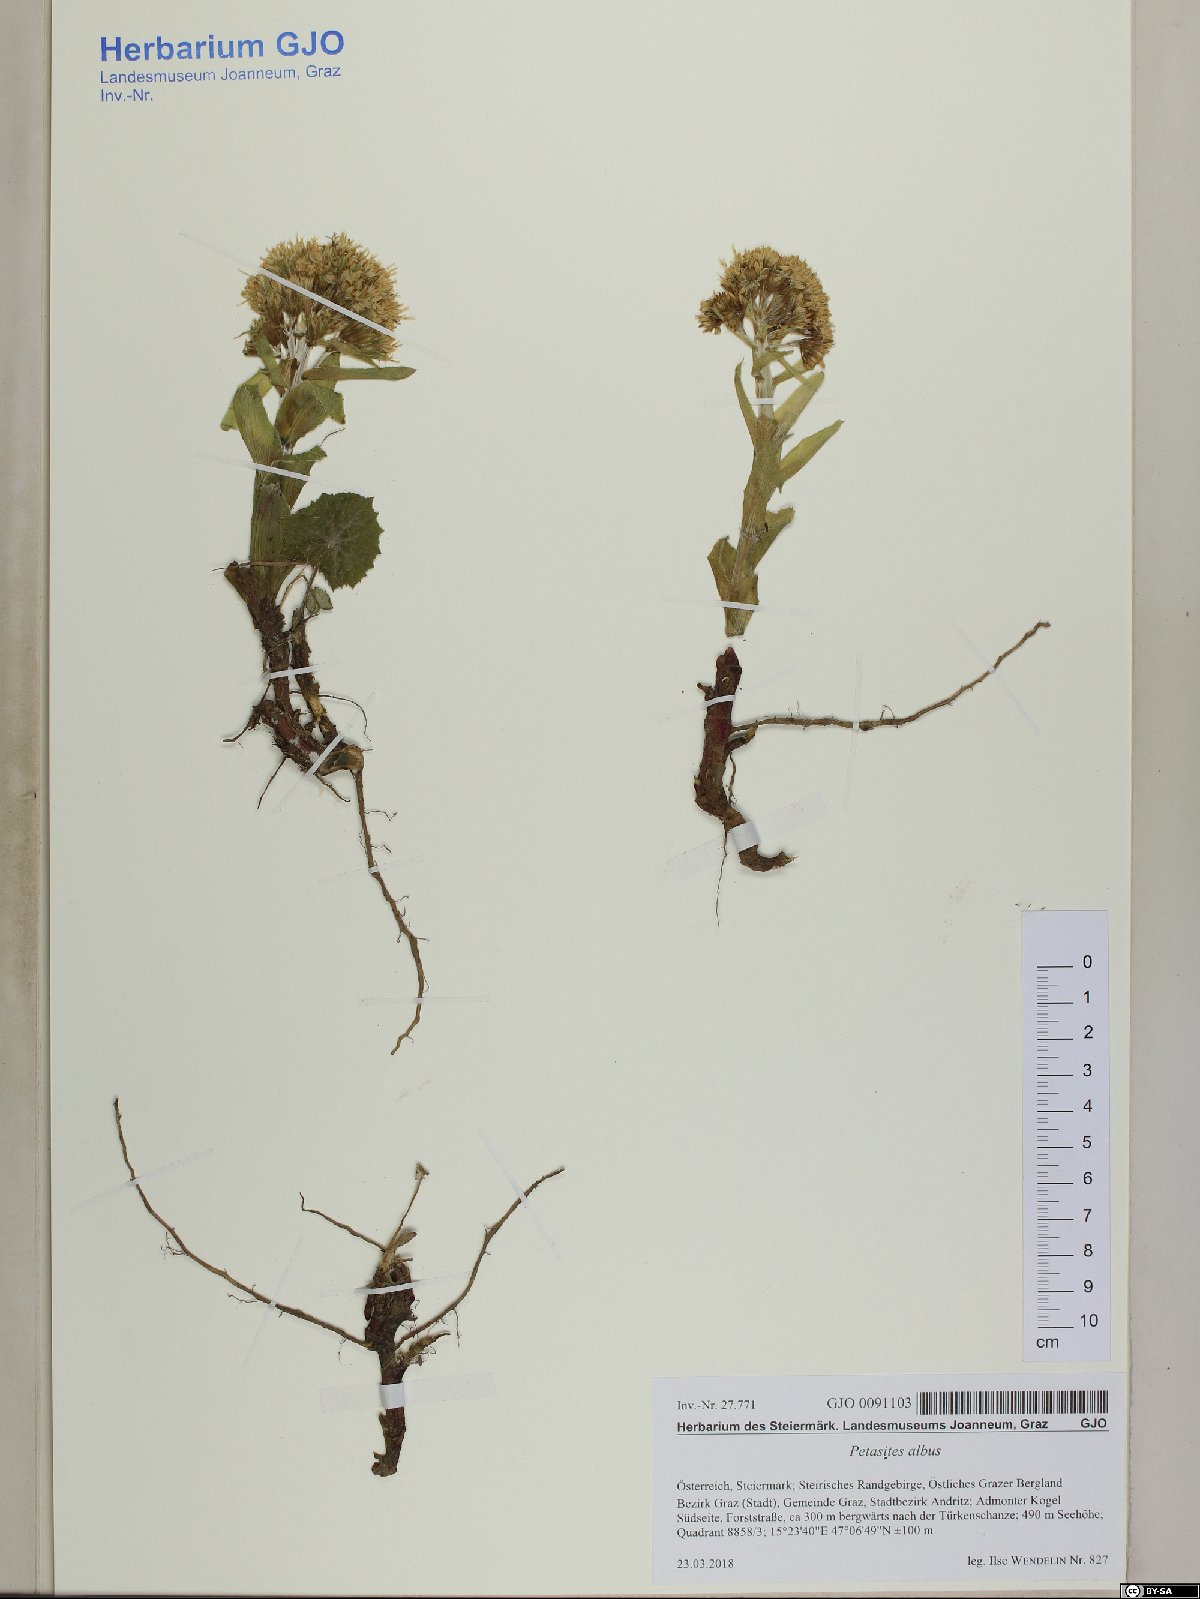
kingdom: Plantae
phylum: Tracheophyta
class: Magnoliopsida
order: Asterales
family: Asteraceae
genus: Petasites
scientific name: Petasites albus
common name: White butterbur
